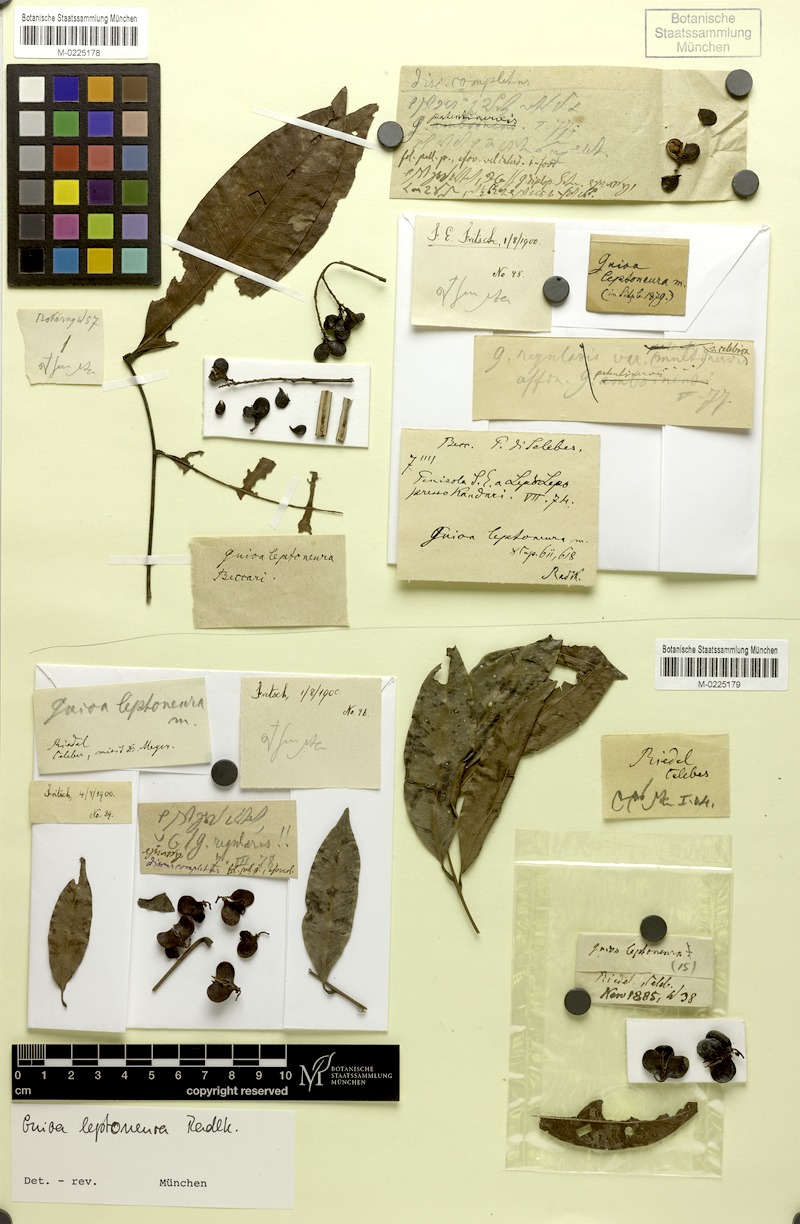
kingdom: Plantae
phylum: Tracheophyta
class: Magnoliopsida
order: Sapindales
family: Sapindaceae
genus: Guioa
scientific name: Guioa diplopetala
